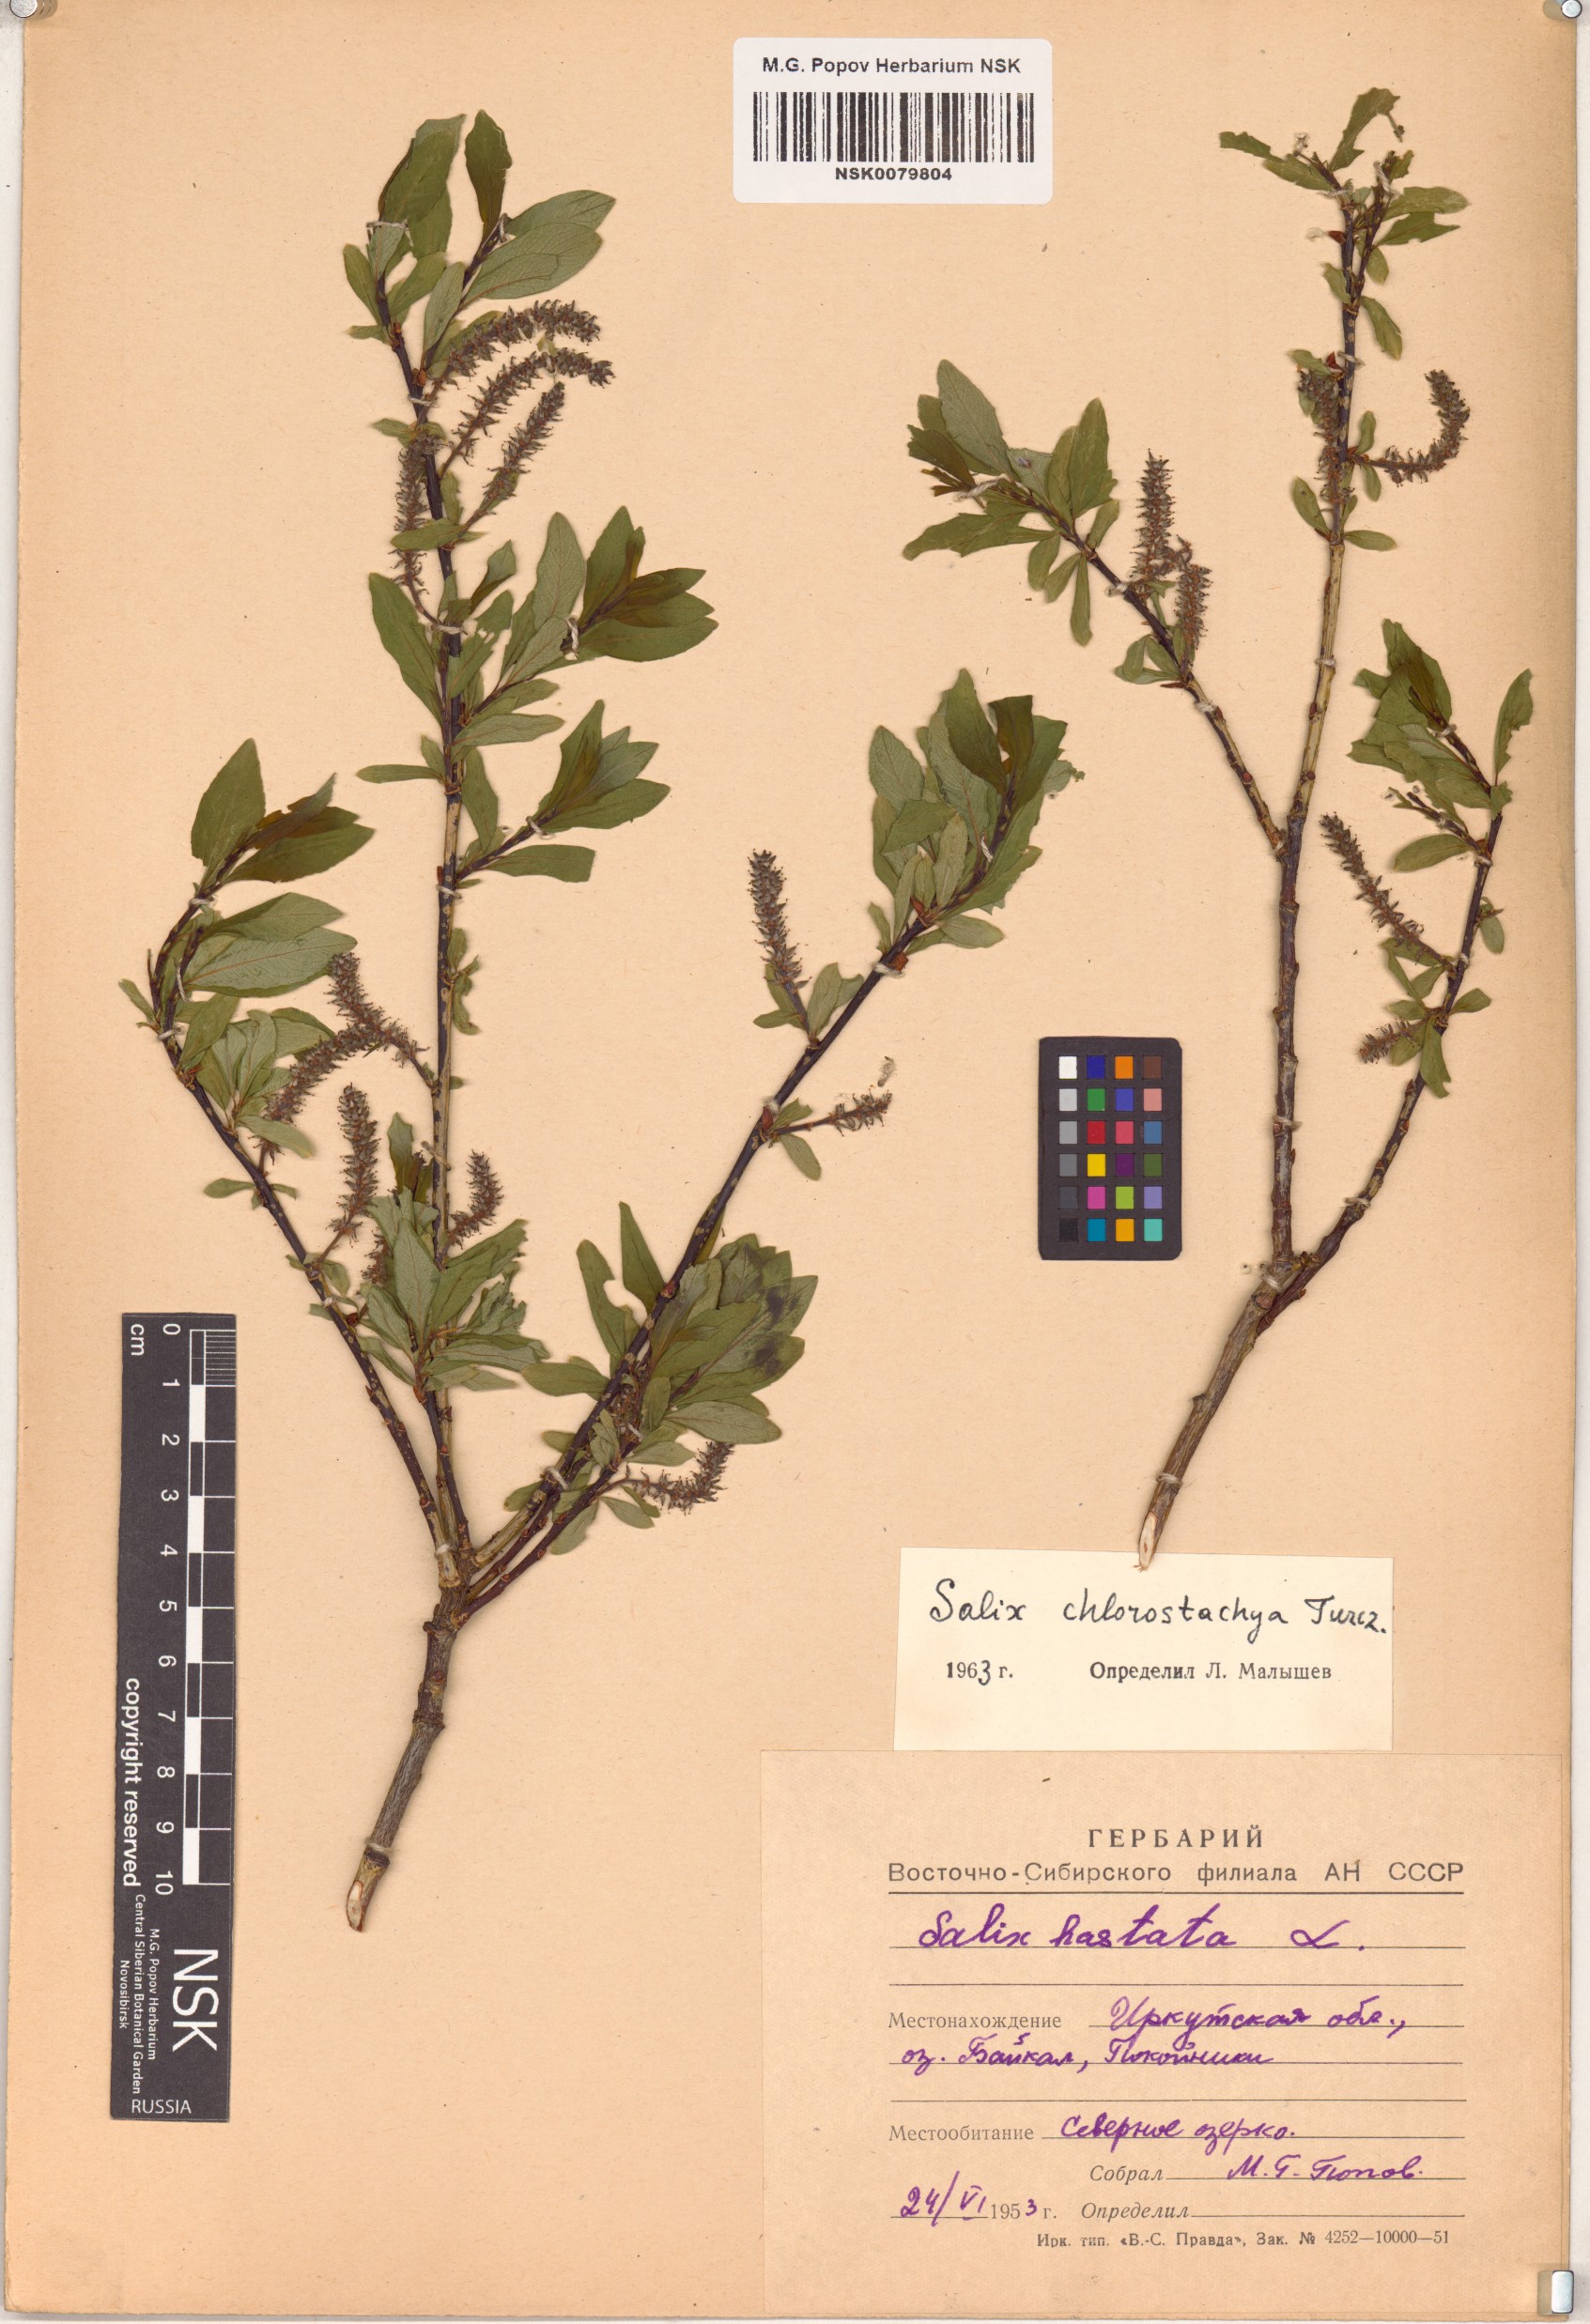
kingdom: Plantae
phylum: Tracheophyta
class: Magnoliopsida
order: Malpighiales
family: Salicaceae
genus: Salix
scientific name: Salix rhamnifolia
